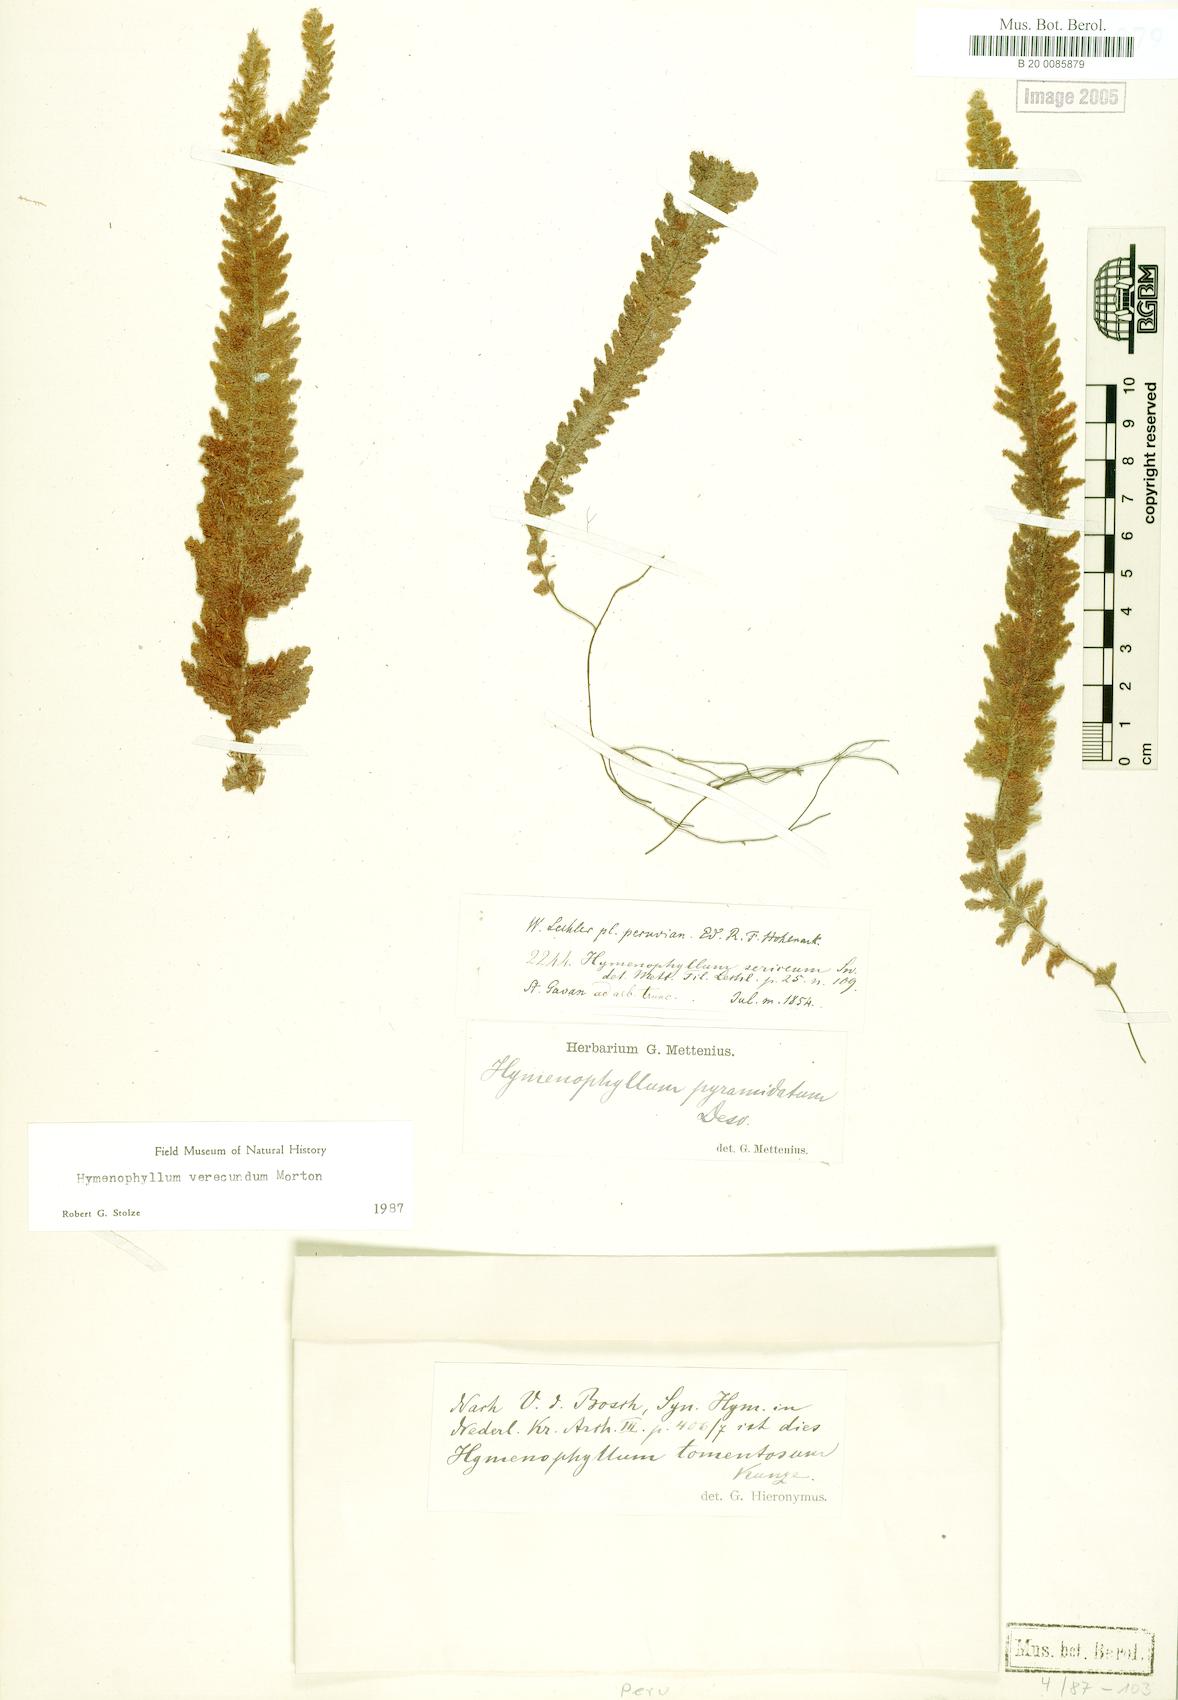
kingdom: Plantae
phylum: Tracheophyta
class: Polypodiopsida
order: Hymenophyllales
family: Hymenophyllaceae
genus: Hymenophyllum
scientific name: Hymenophyllum verecundum
